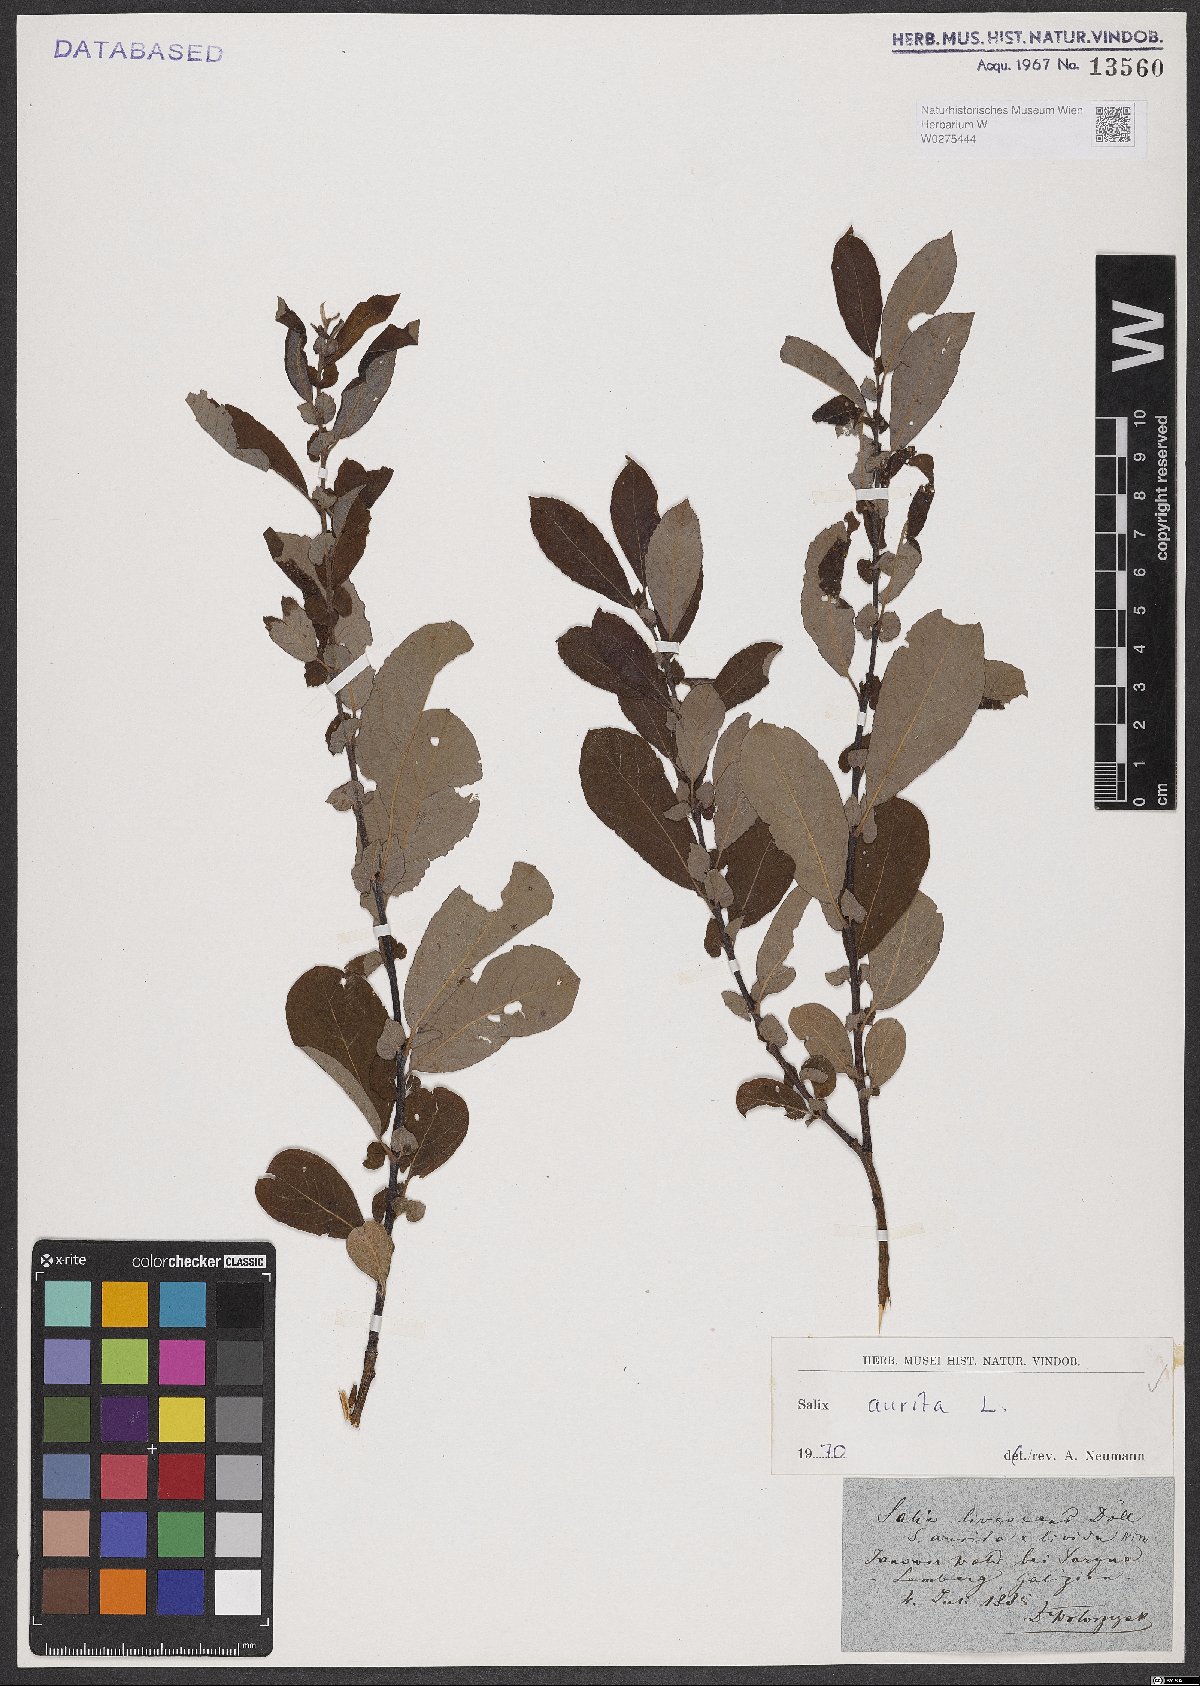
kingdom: Plantae
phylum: Tracheophyta
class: Magnoliopsida
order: Malpighiales
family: Salicaceae
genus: Salix
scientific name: Salix aurita
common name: Eared willow
